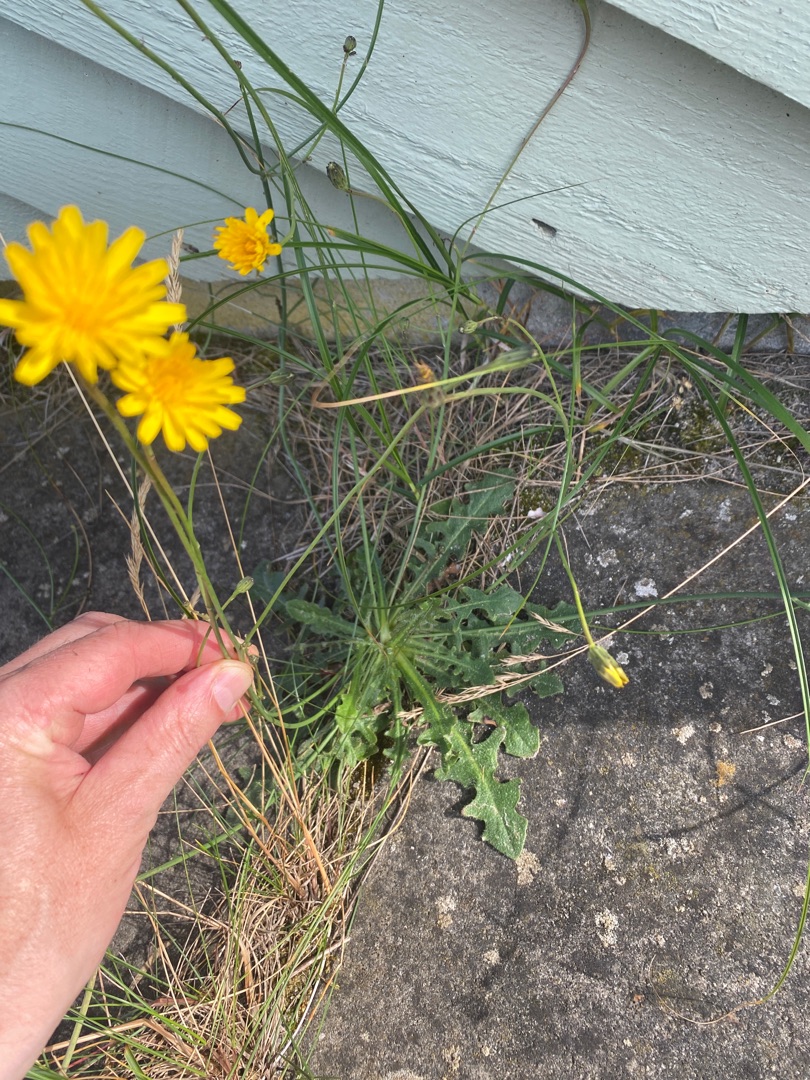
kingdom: Plantae
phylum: Tracheophyta
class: Magnoliopsida
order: Asterales
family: Asteraceae
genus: Hypochaeris
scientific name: Hypochaeris radicata
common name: Almindelig kongepen
